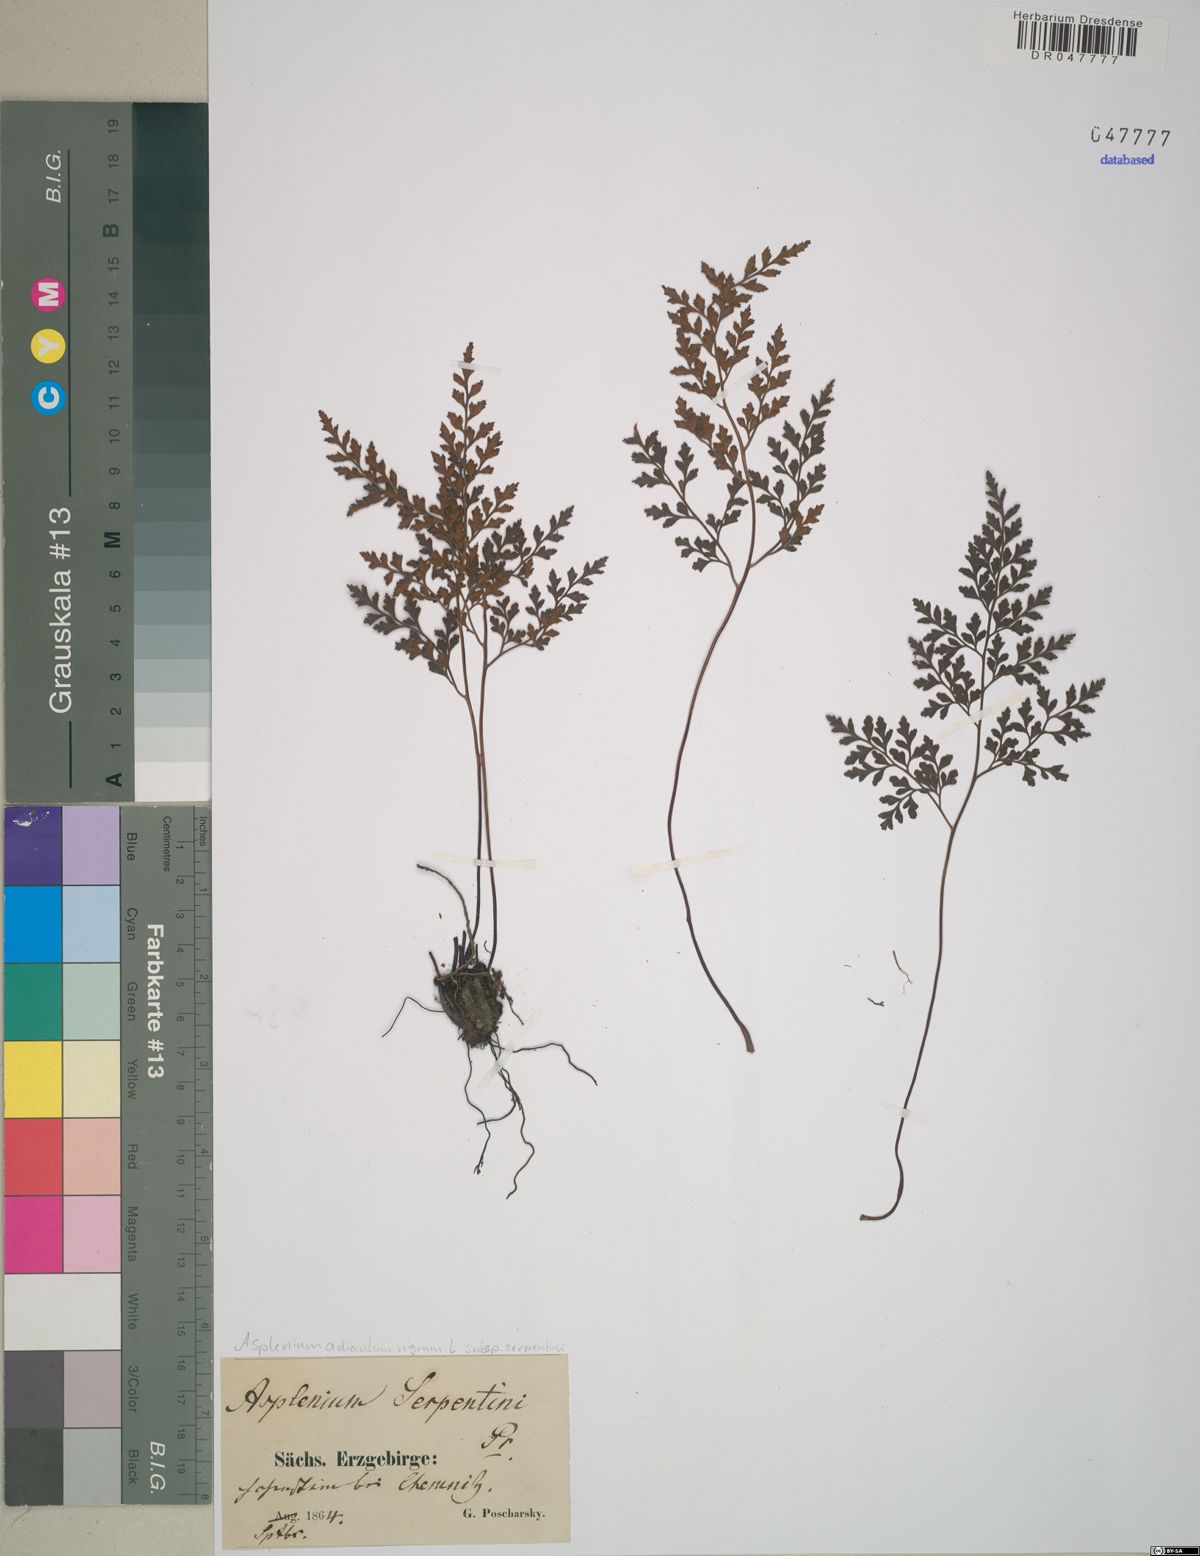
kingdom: Plantae
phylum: Tracheophyta
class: Polypodiopsida
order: Polypodiales
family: Aspleniaceae
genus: Asplenium
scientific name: Asplenium cuneifolium
